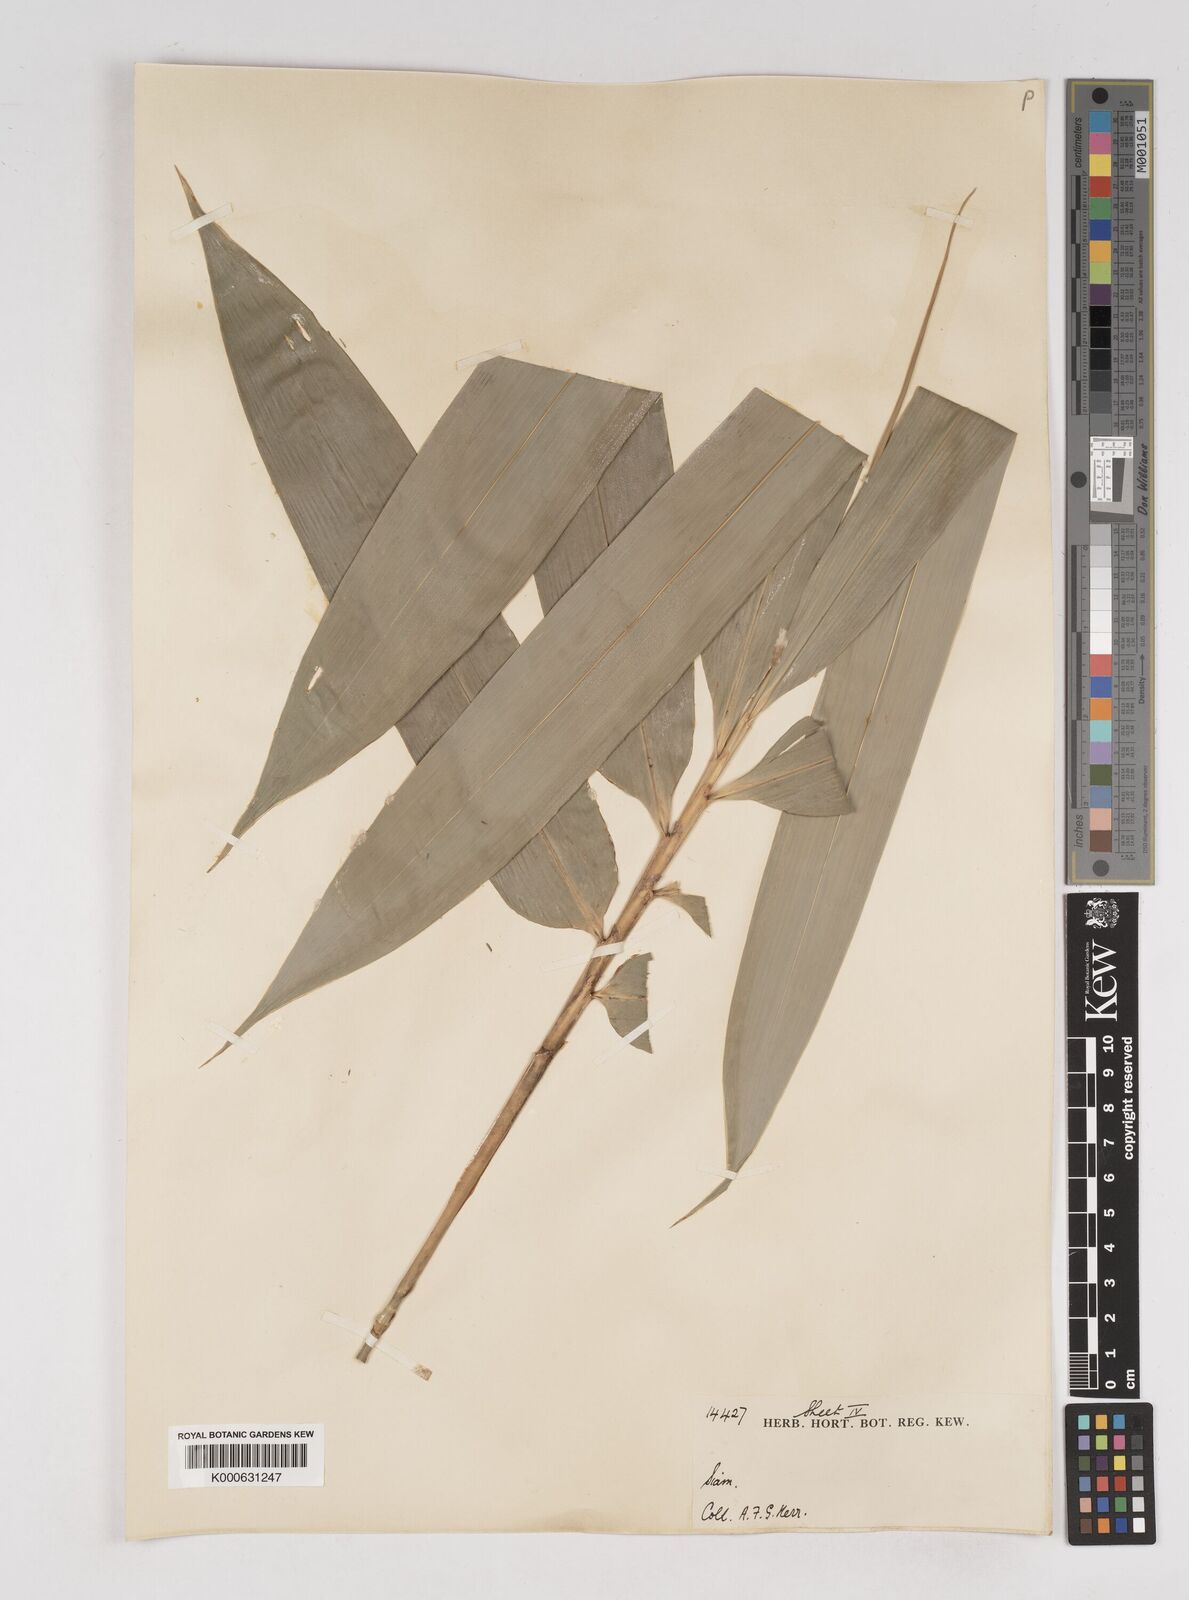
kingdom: Plantae
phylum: Tracheophyta
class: Liliopsida
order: Poales
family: Poaceae
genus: Gigantochloa
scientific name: Gigantochloa
